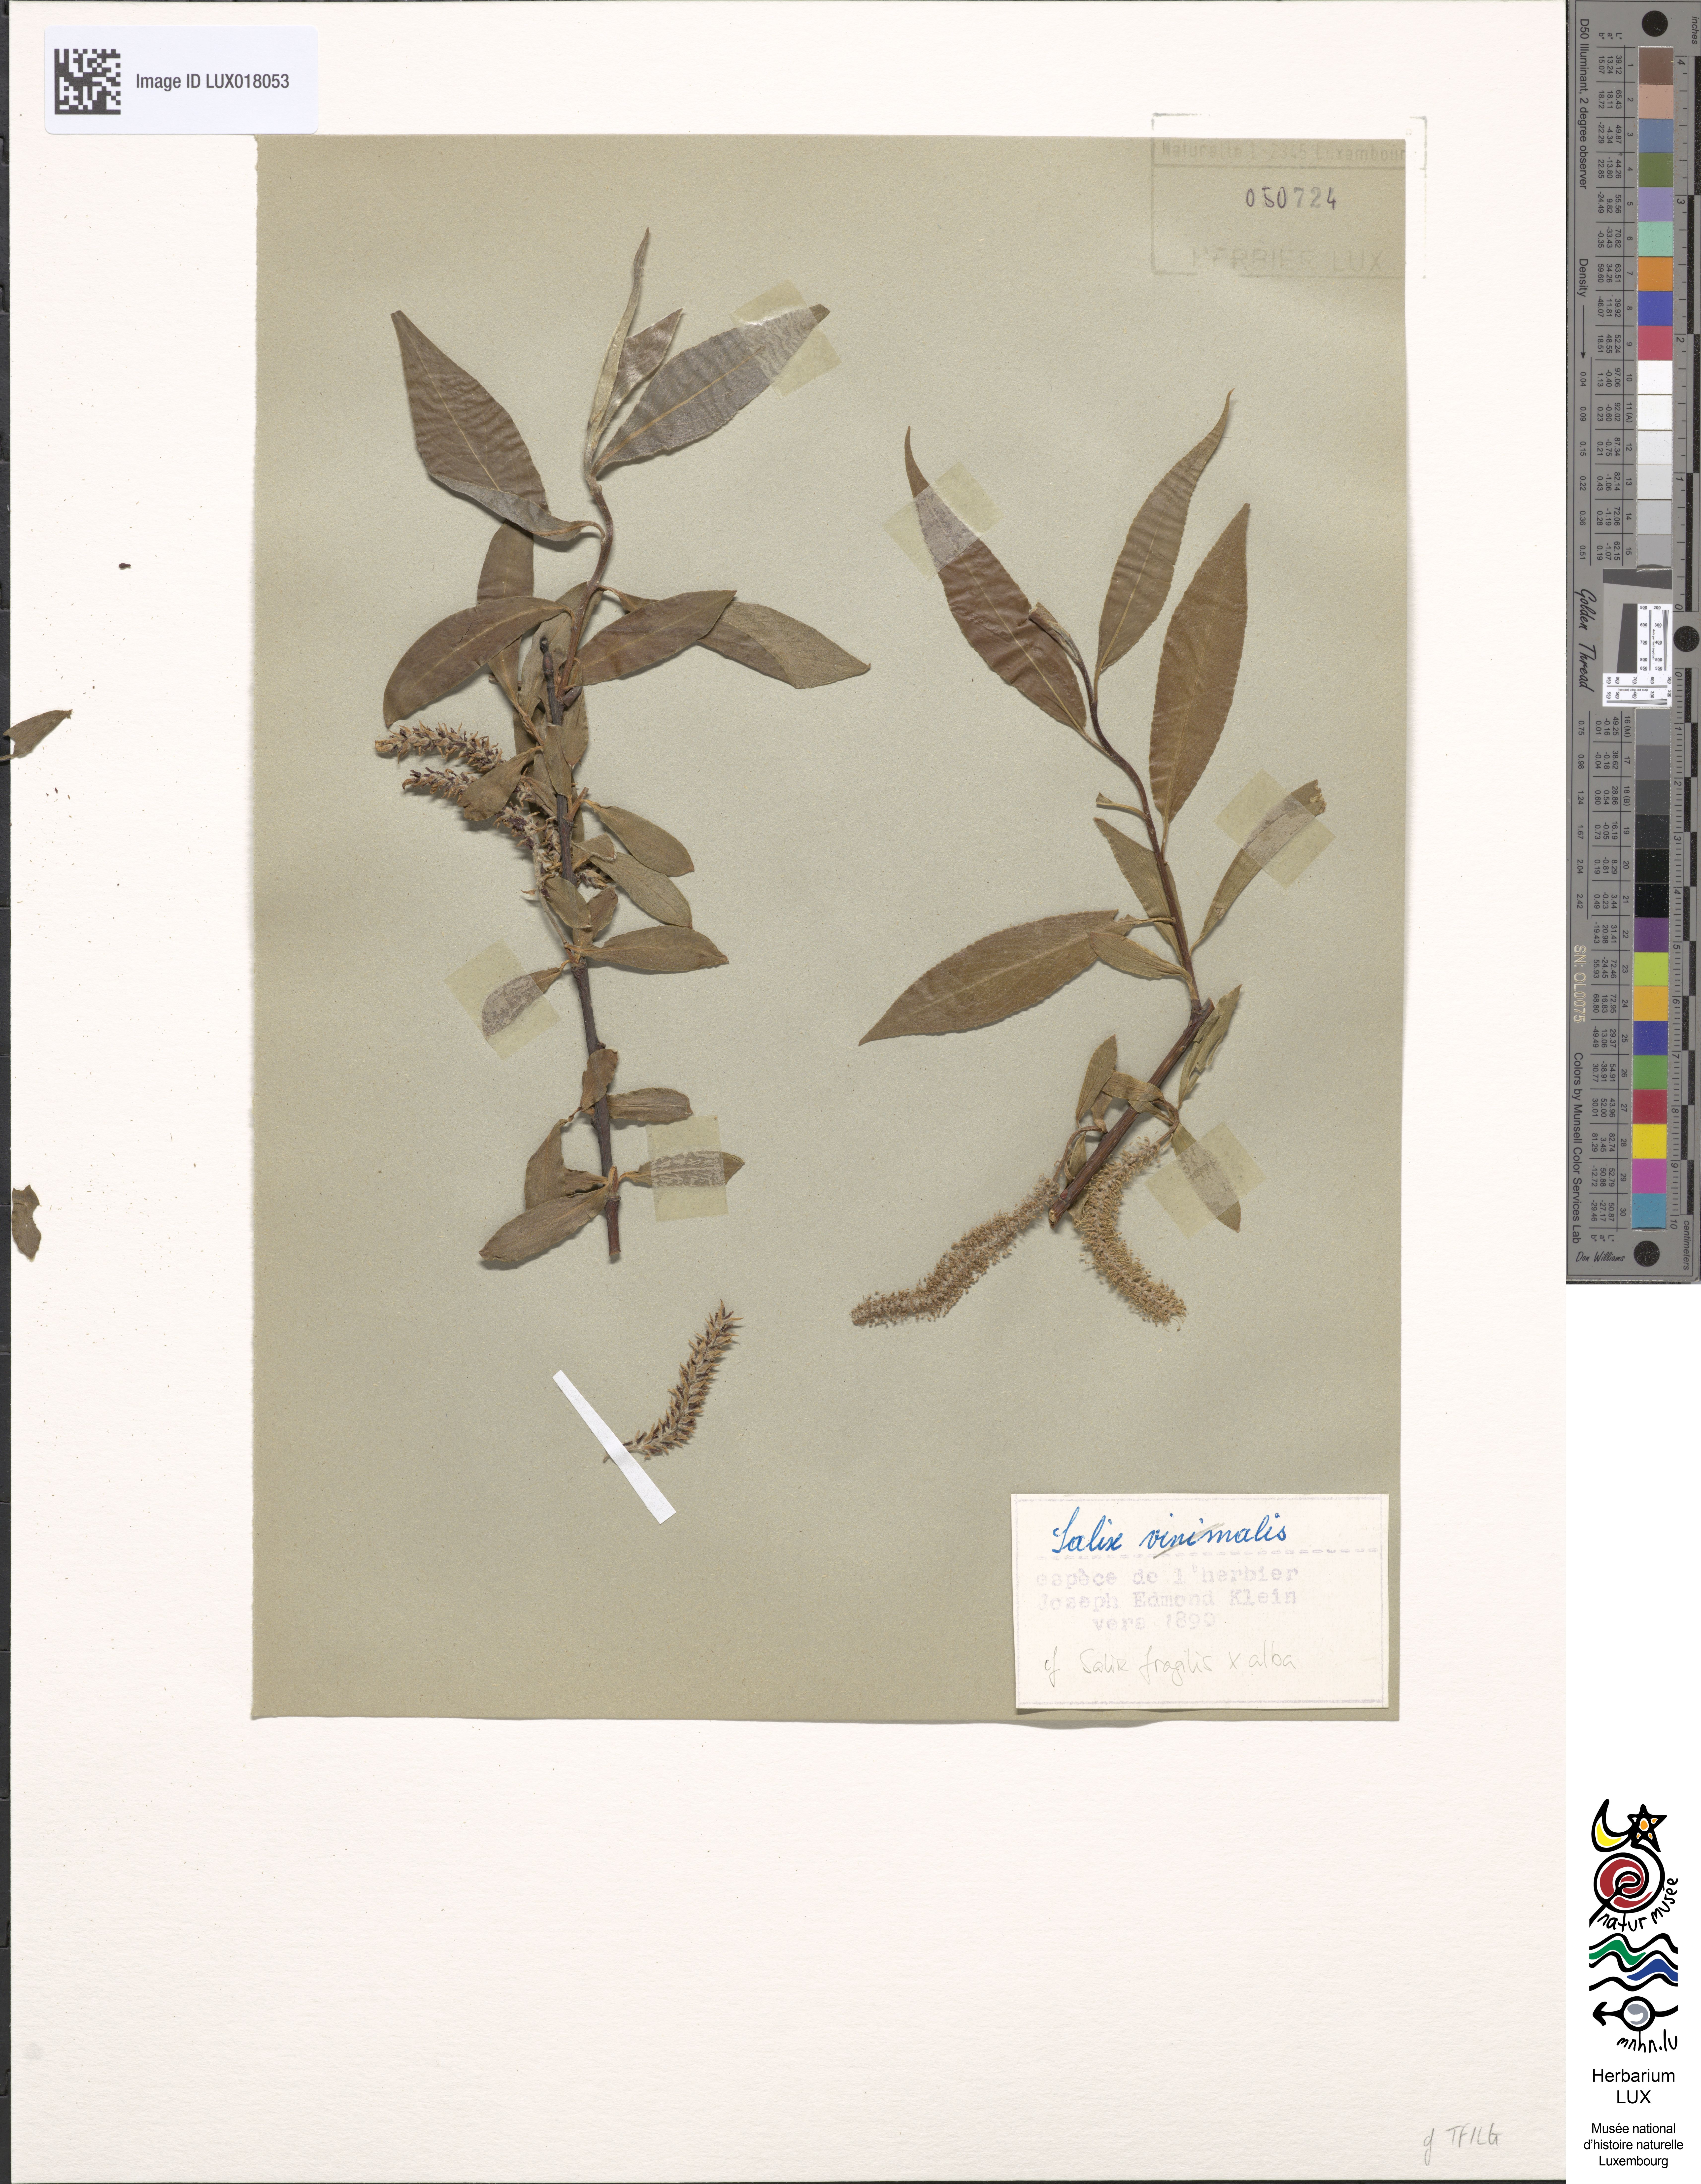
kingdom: Plantae
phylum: Tracheophyta
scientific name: Tracheophyta
